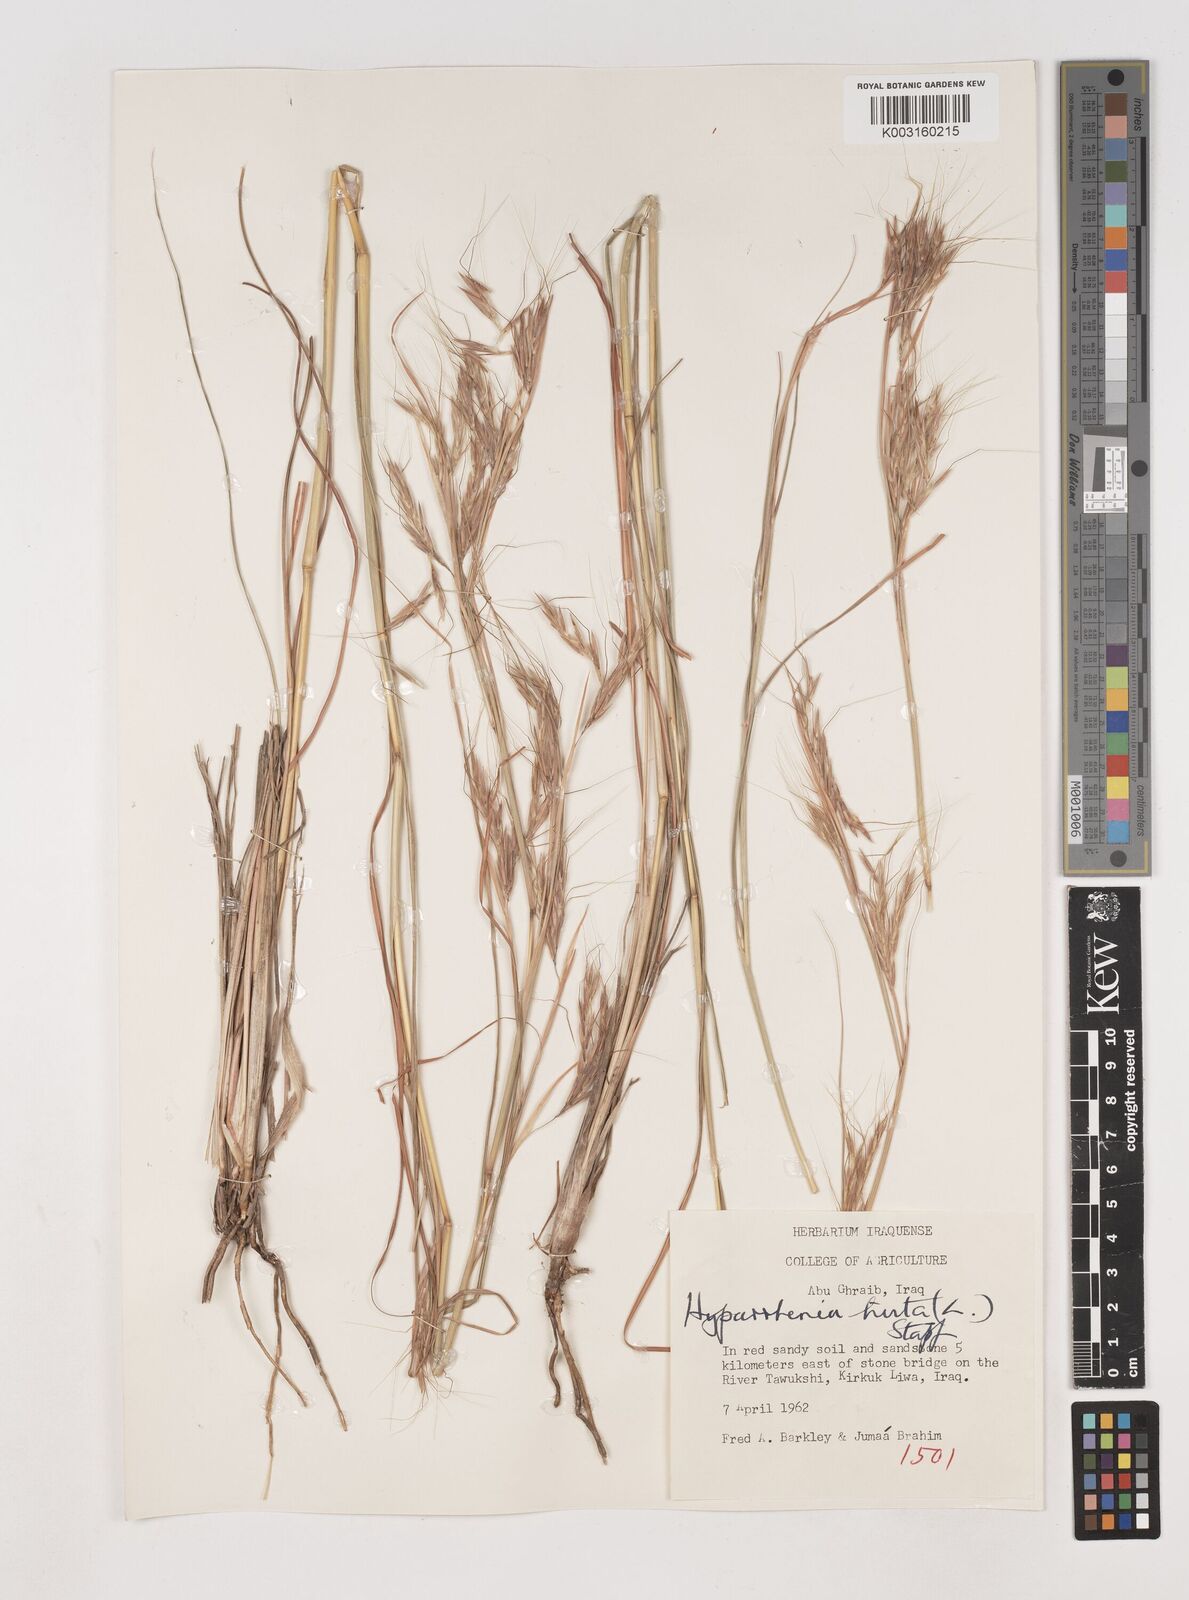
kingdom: Plantae
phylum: Tracheophyta
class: Liliopsida
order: Poales
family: Poaceae
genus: Hyparrhenia
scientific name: Hyparrhenia hirta
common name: Thatching grass
